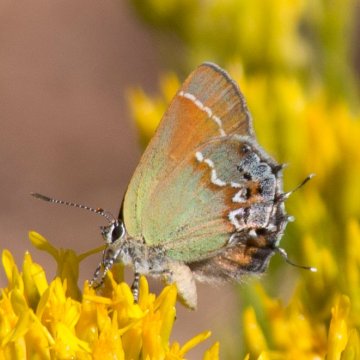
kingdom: Animalia
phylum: Arthropoda
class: Insecta
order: Lepidoptera
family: Lycaenidae
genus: Mitoura
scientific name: Mitoura gryneus
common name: Juniper Hairstreak
